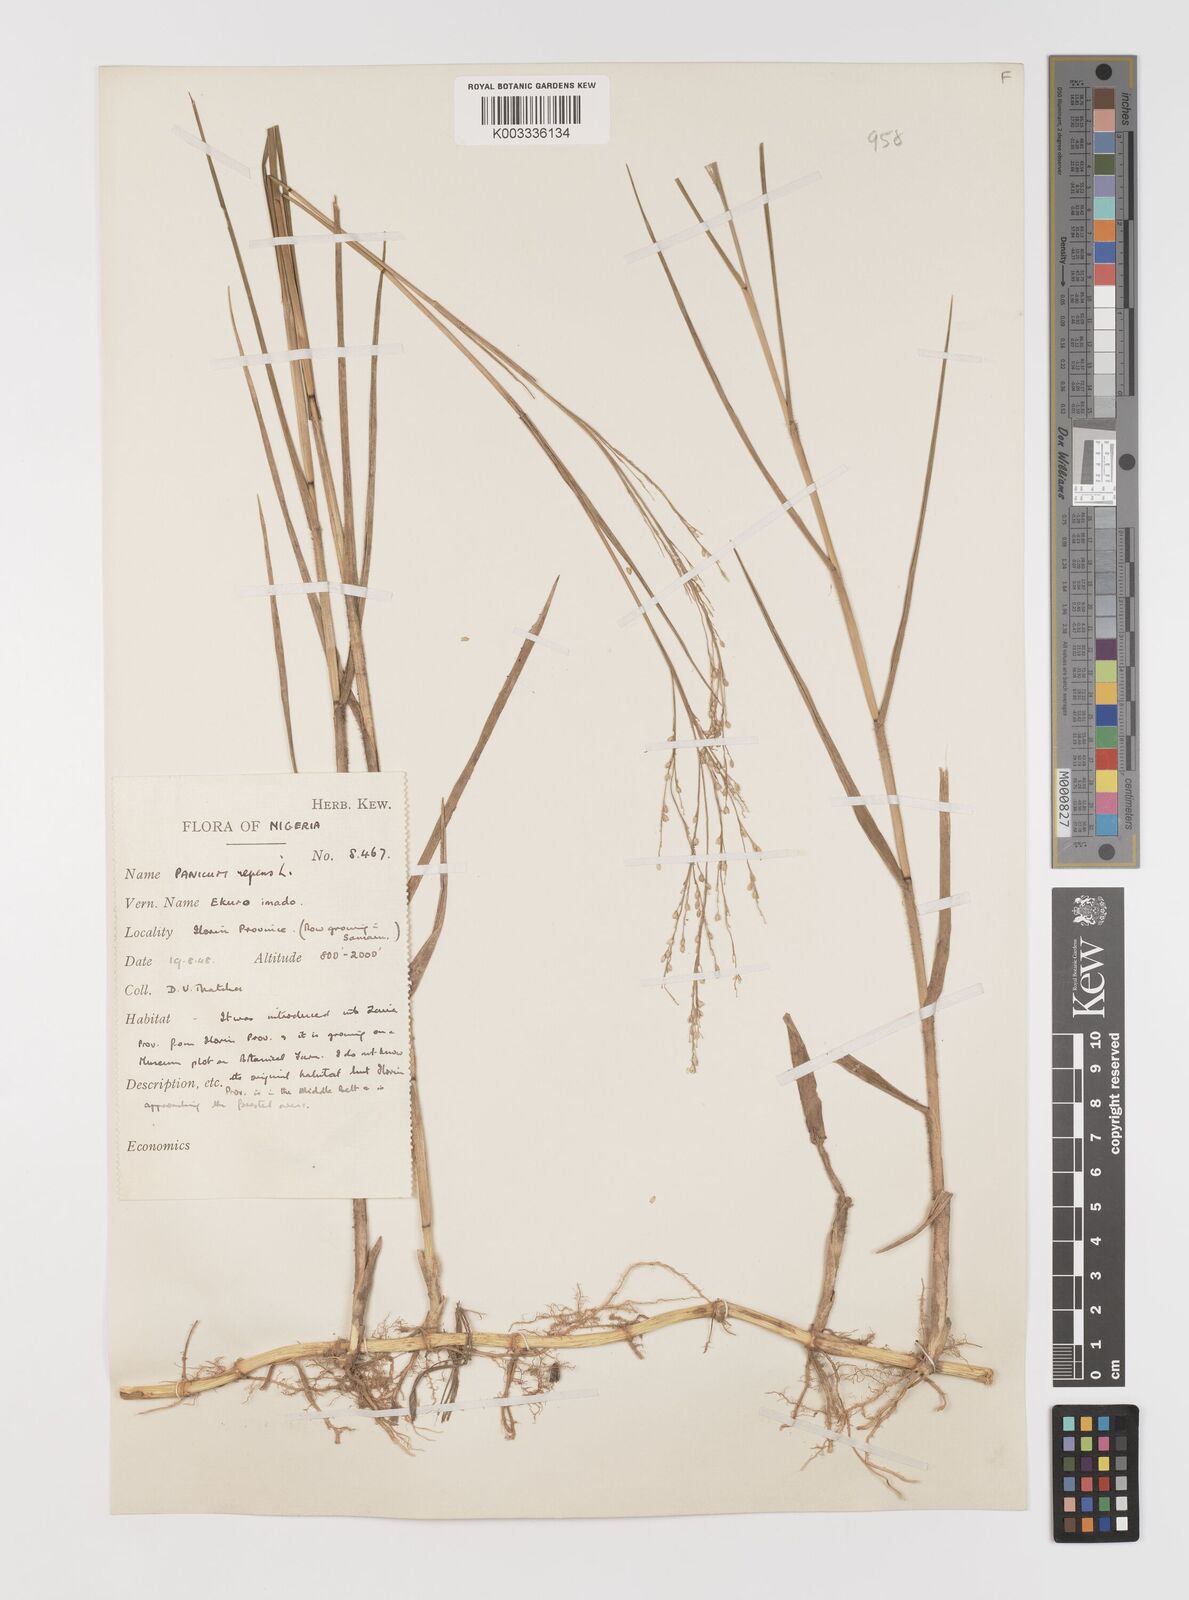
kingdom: Plantae
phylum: Tracheophyta
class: Liliopsida
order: Poales
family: Poaceae
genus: Panicum
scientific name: Panicum repens
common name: Torpedo grass
